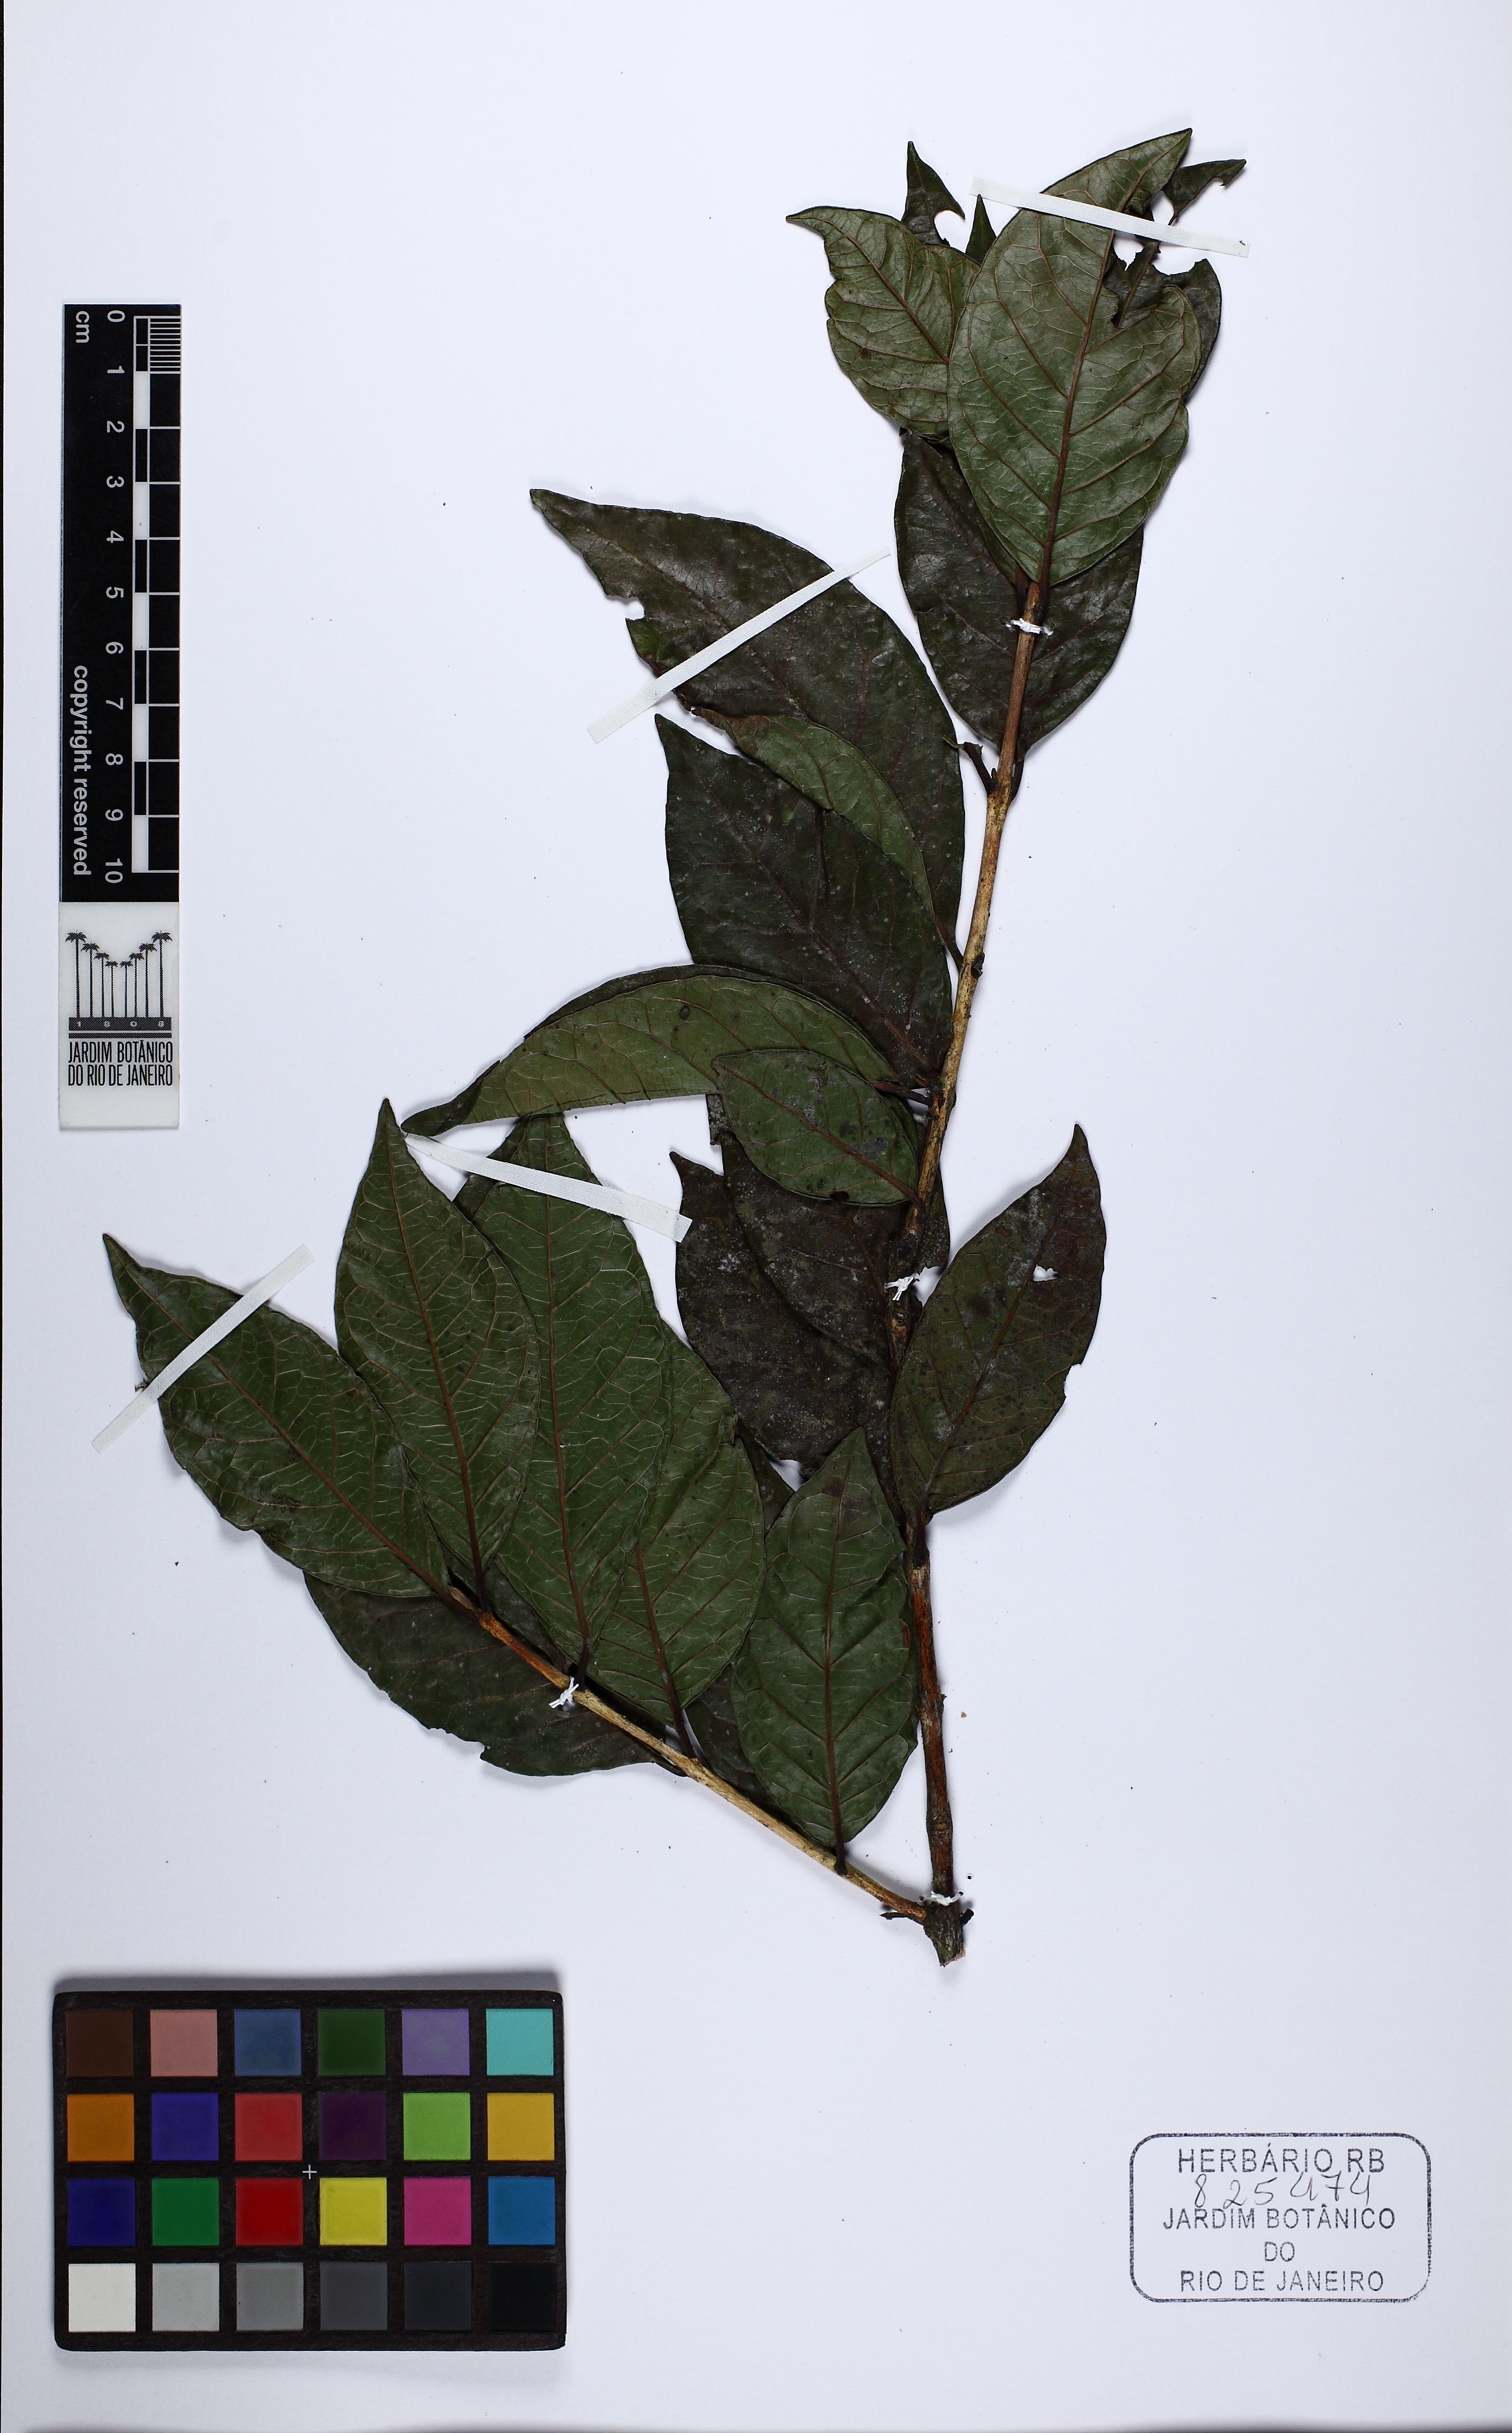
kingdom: Plantae
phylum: Tracheophyta
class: Magnoliopsida
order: Myrtales
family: Myrtaceae
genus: Campomanesia
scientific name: Campomanesia schlechtendaliana
